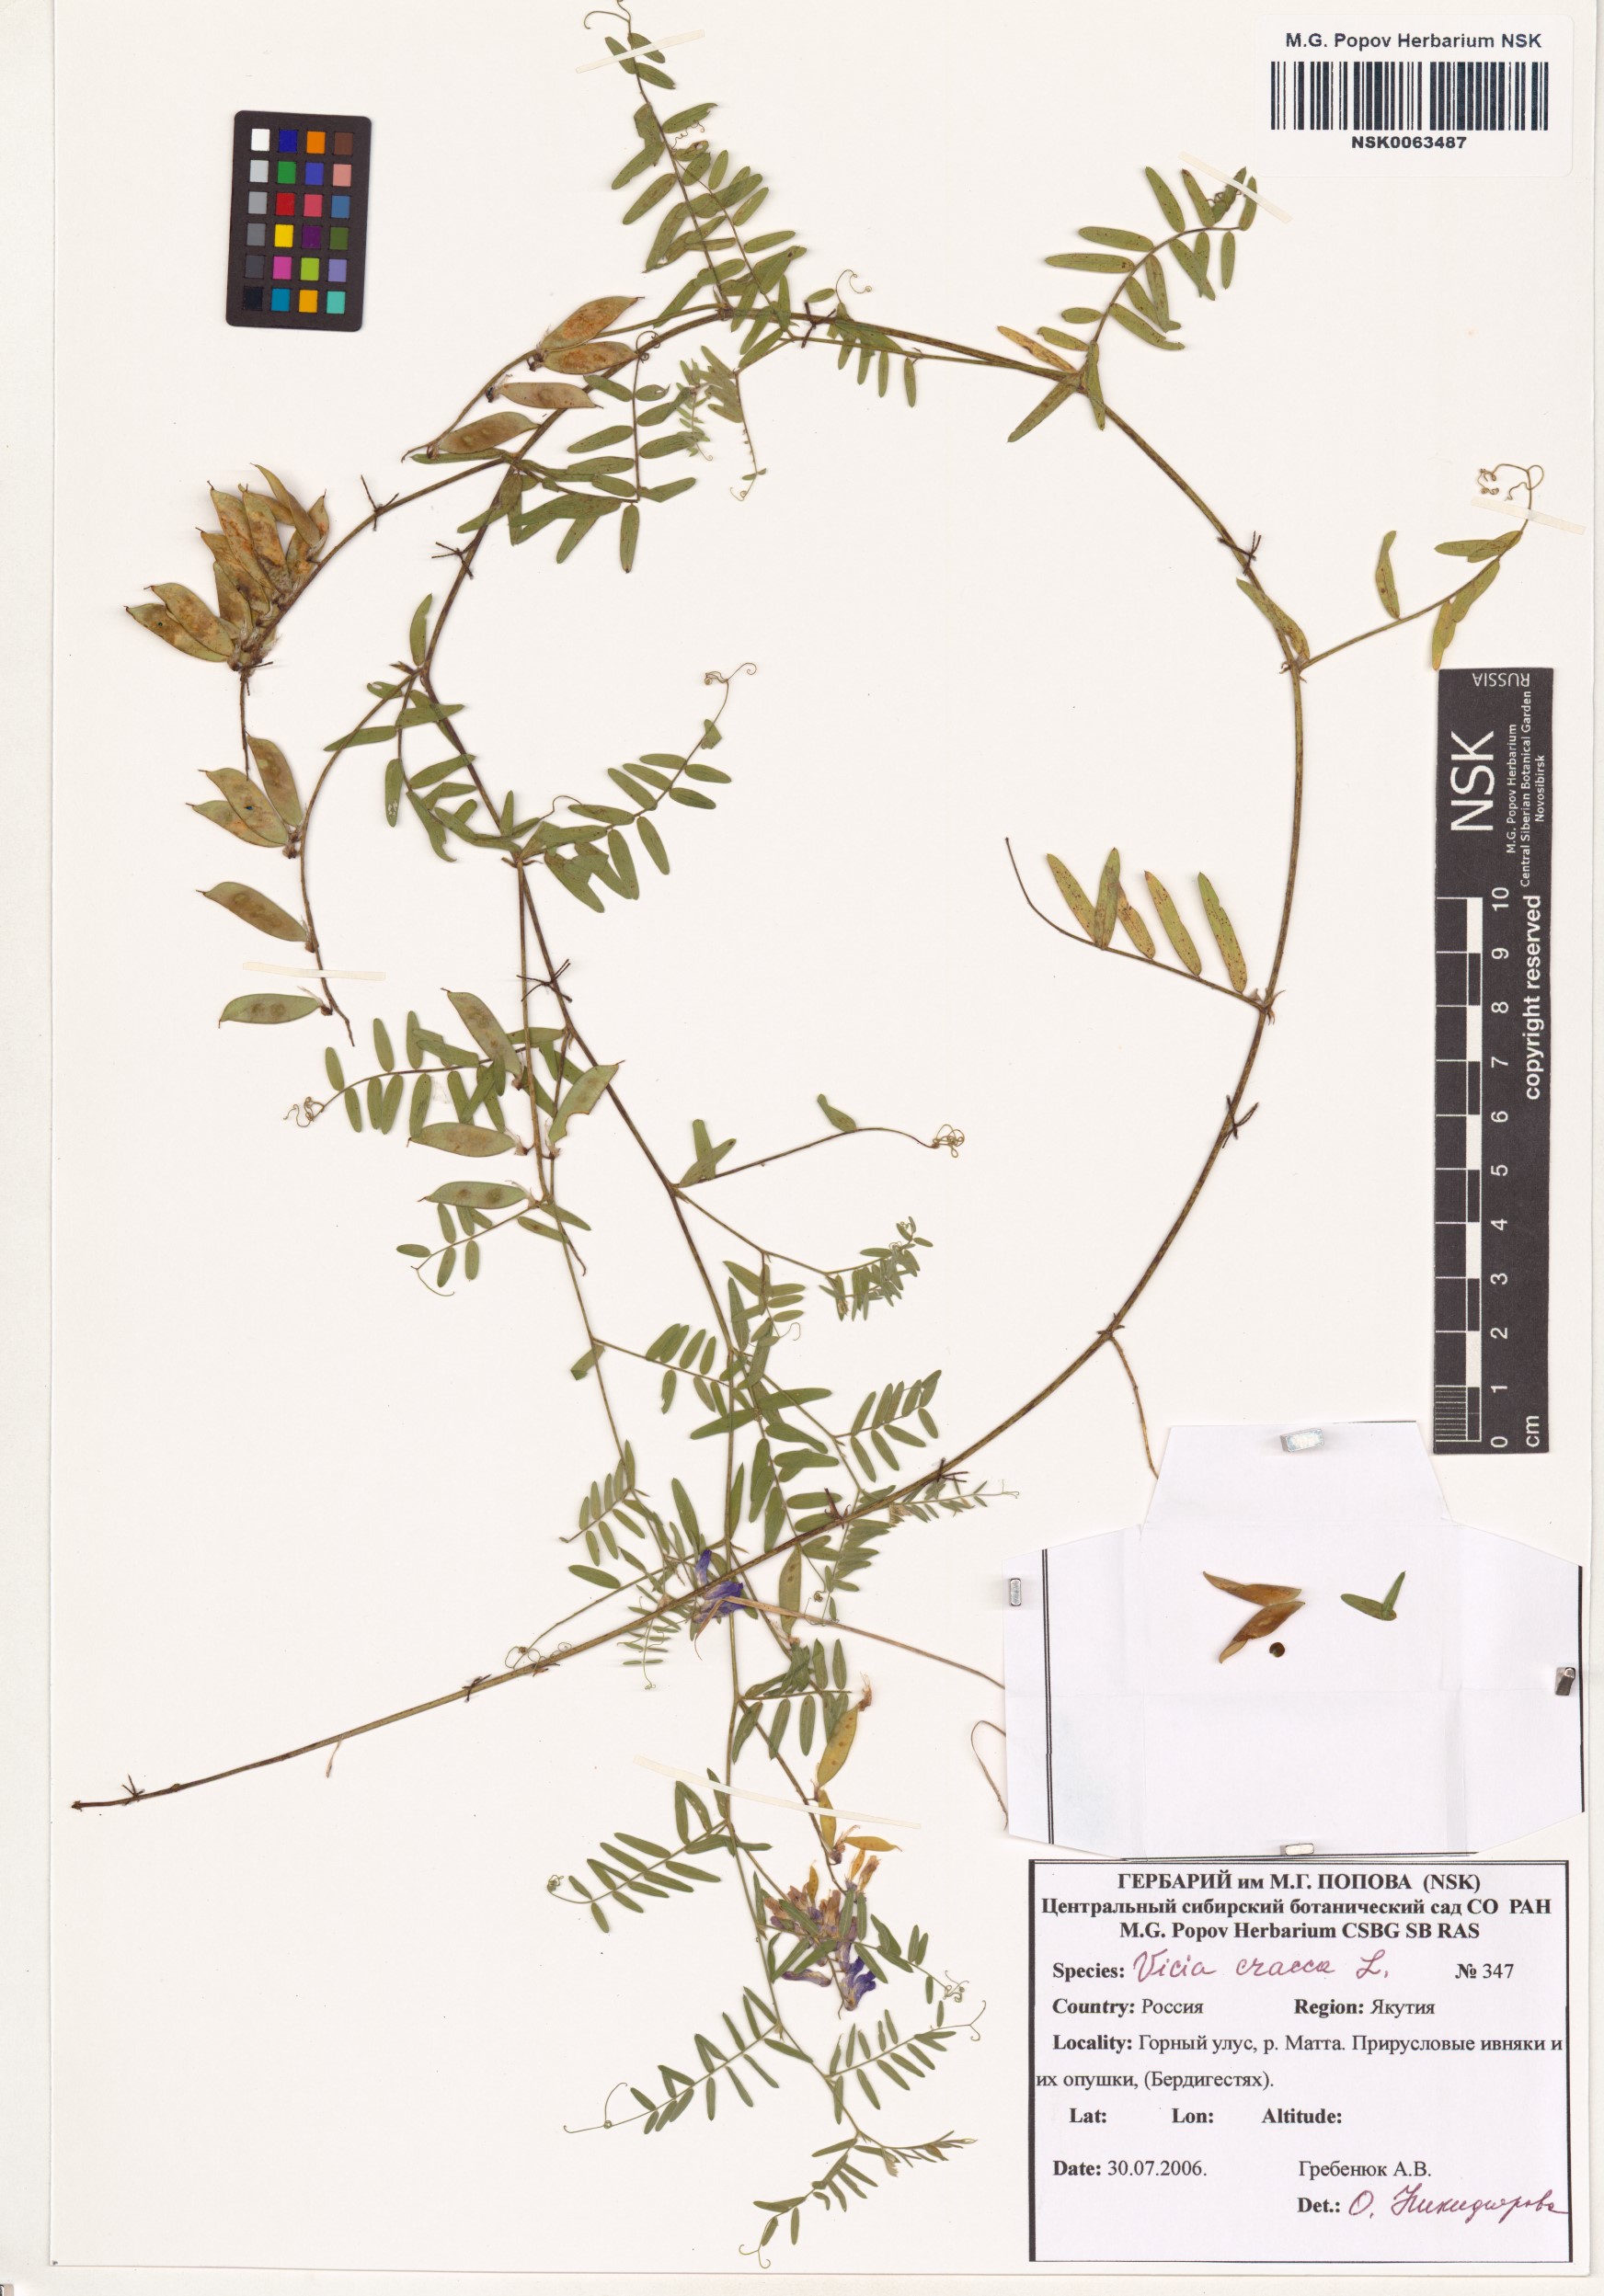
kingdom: Plantae
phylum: Tracheophyta
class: Magnoliopsida
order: Fabales
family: Fabaceae
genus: Vicia
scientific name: Vicia cracca
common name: Bird vetch
